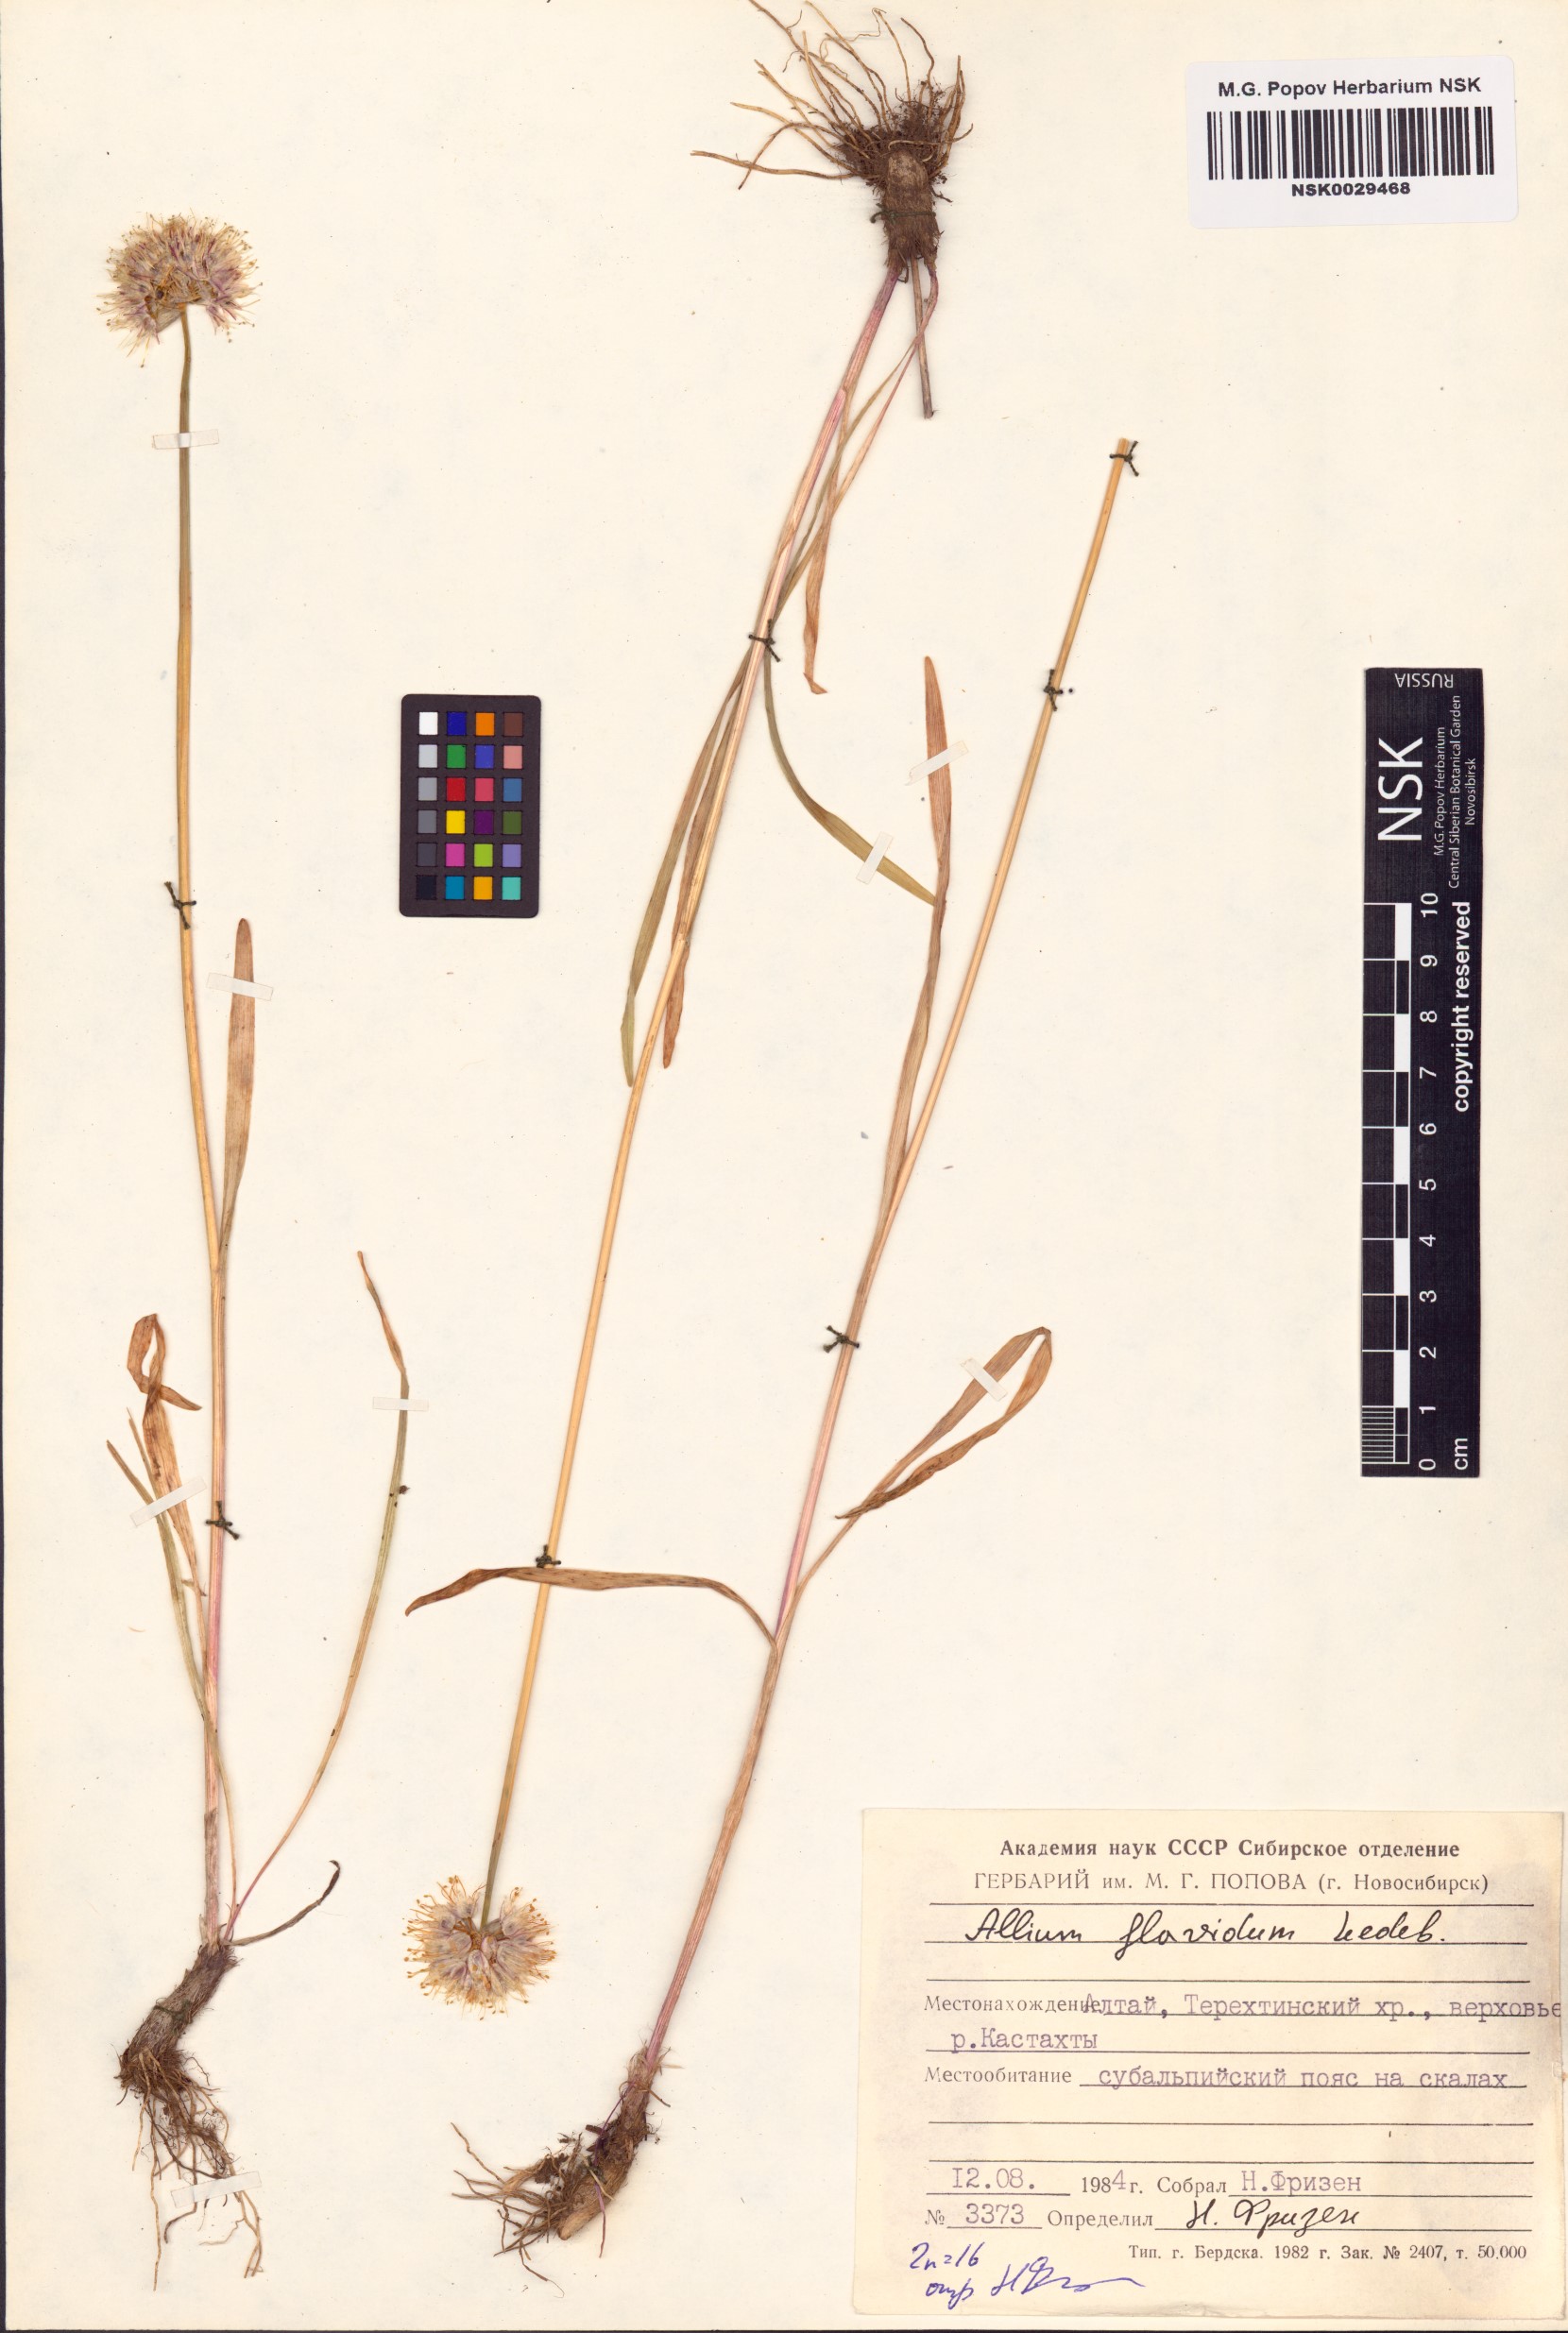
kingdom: Plantae
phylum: Tracheophyta
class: Liliopsida
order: Asparagales
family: Amaryllidaceae
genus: Allium
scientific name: Allium flavidum
